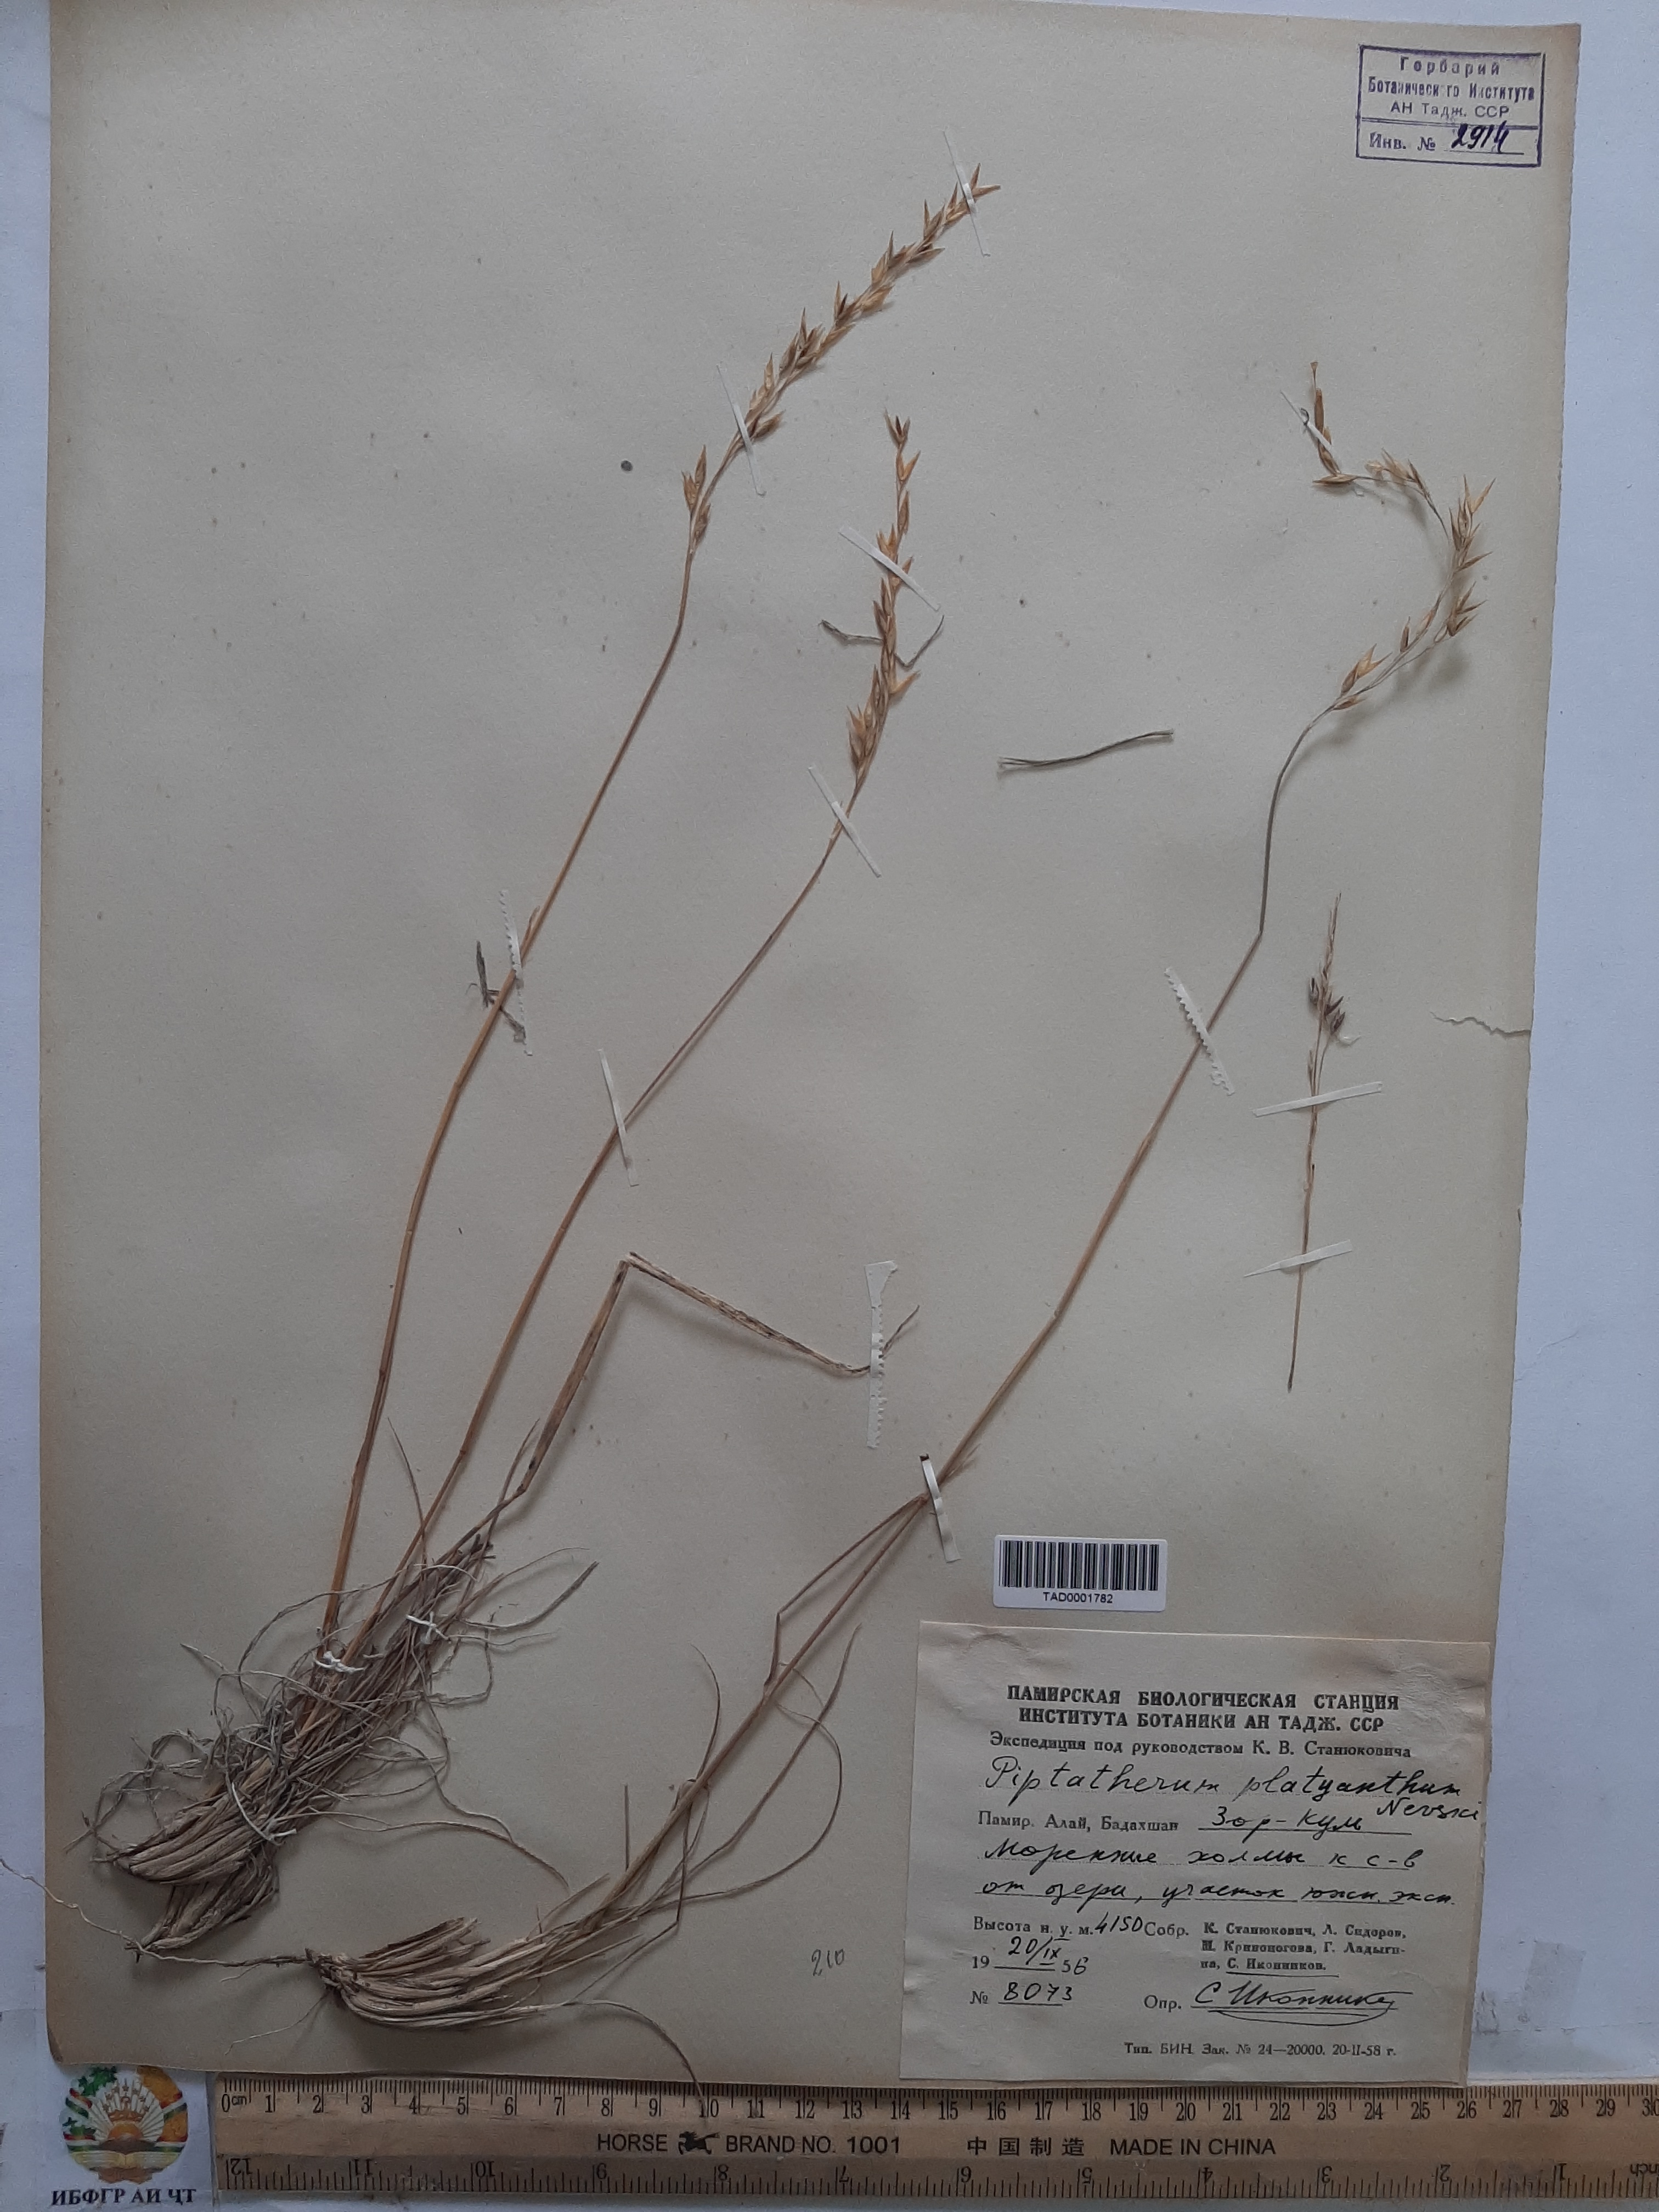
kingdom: Plantae
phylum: Tracheophyta
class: Liliopsida
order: Poales
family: Poaceae
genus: Piptatherum
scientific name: Piptatherum platyanthum
